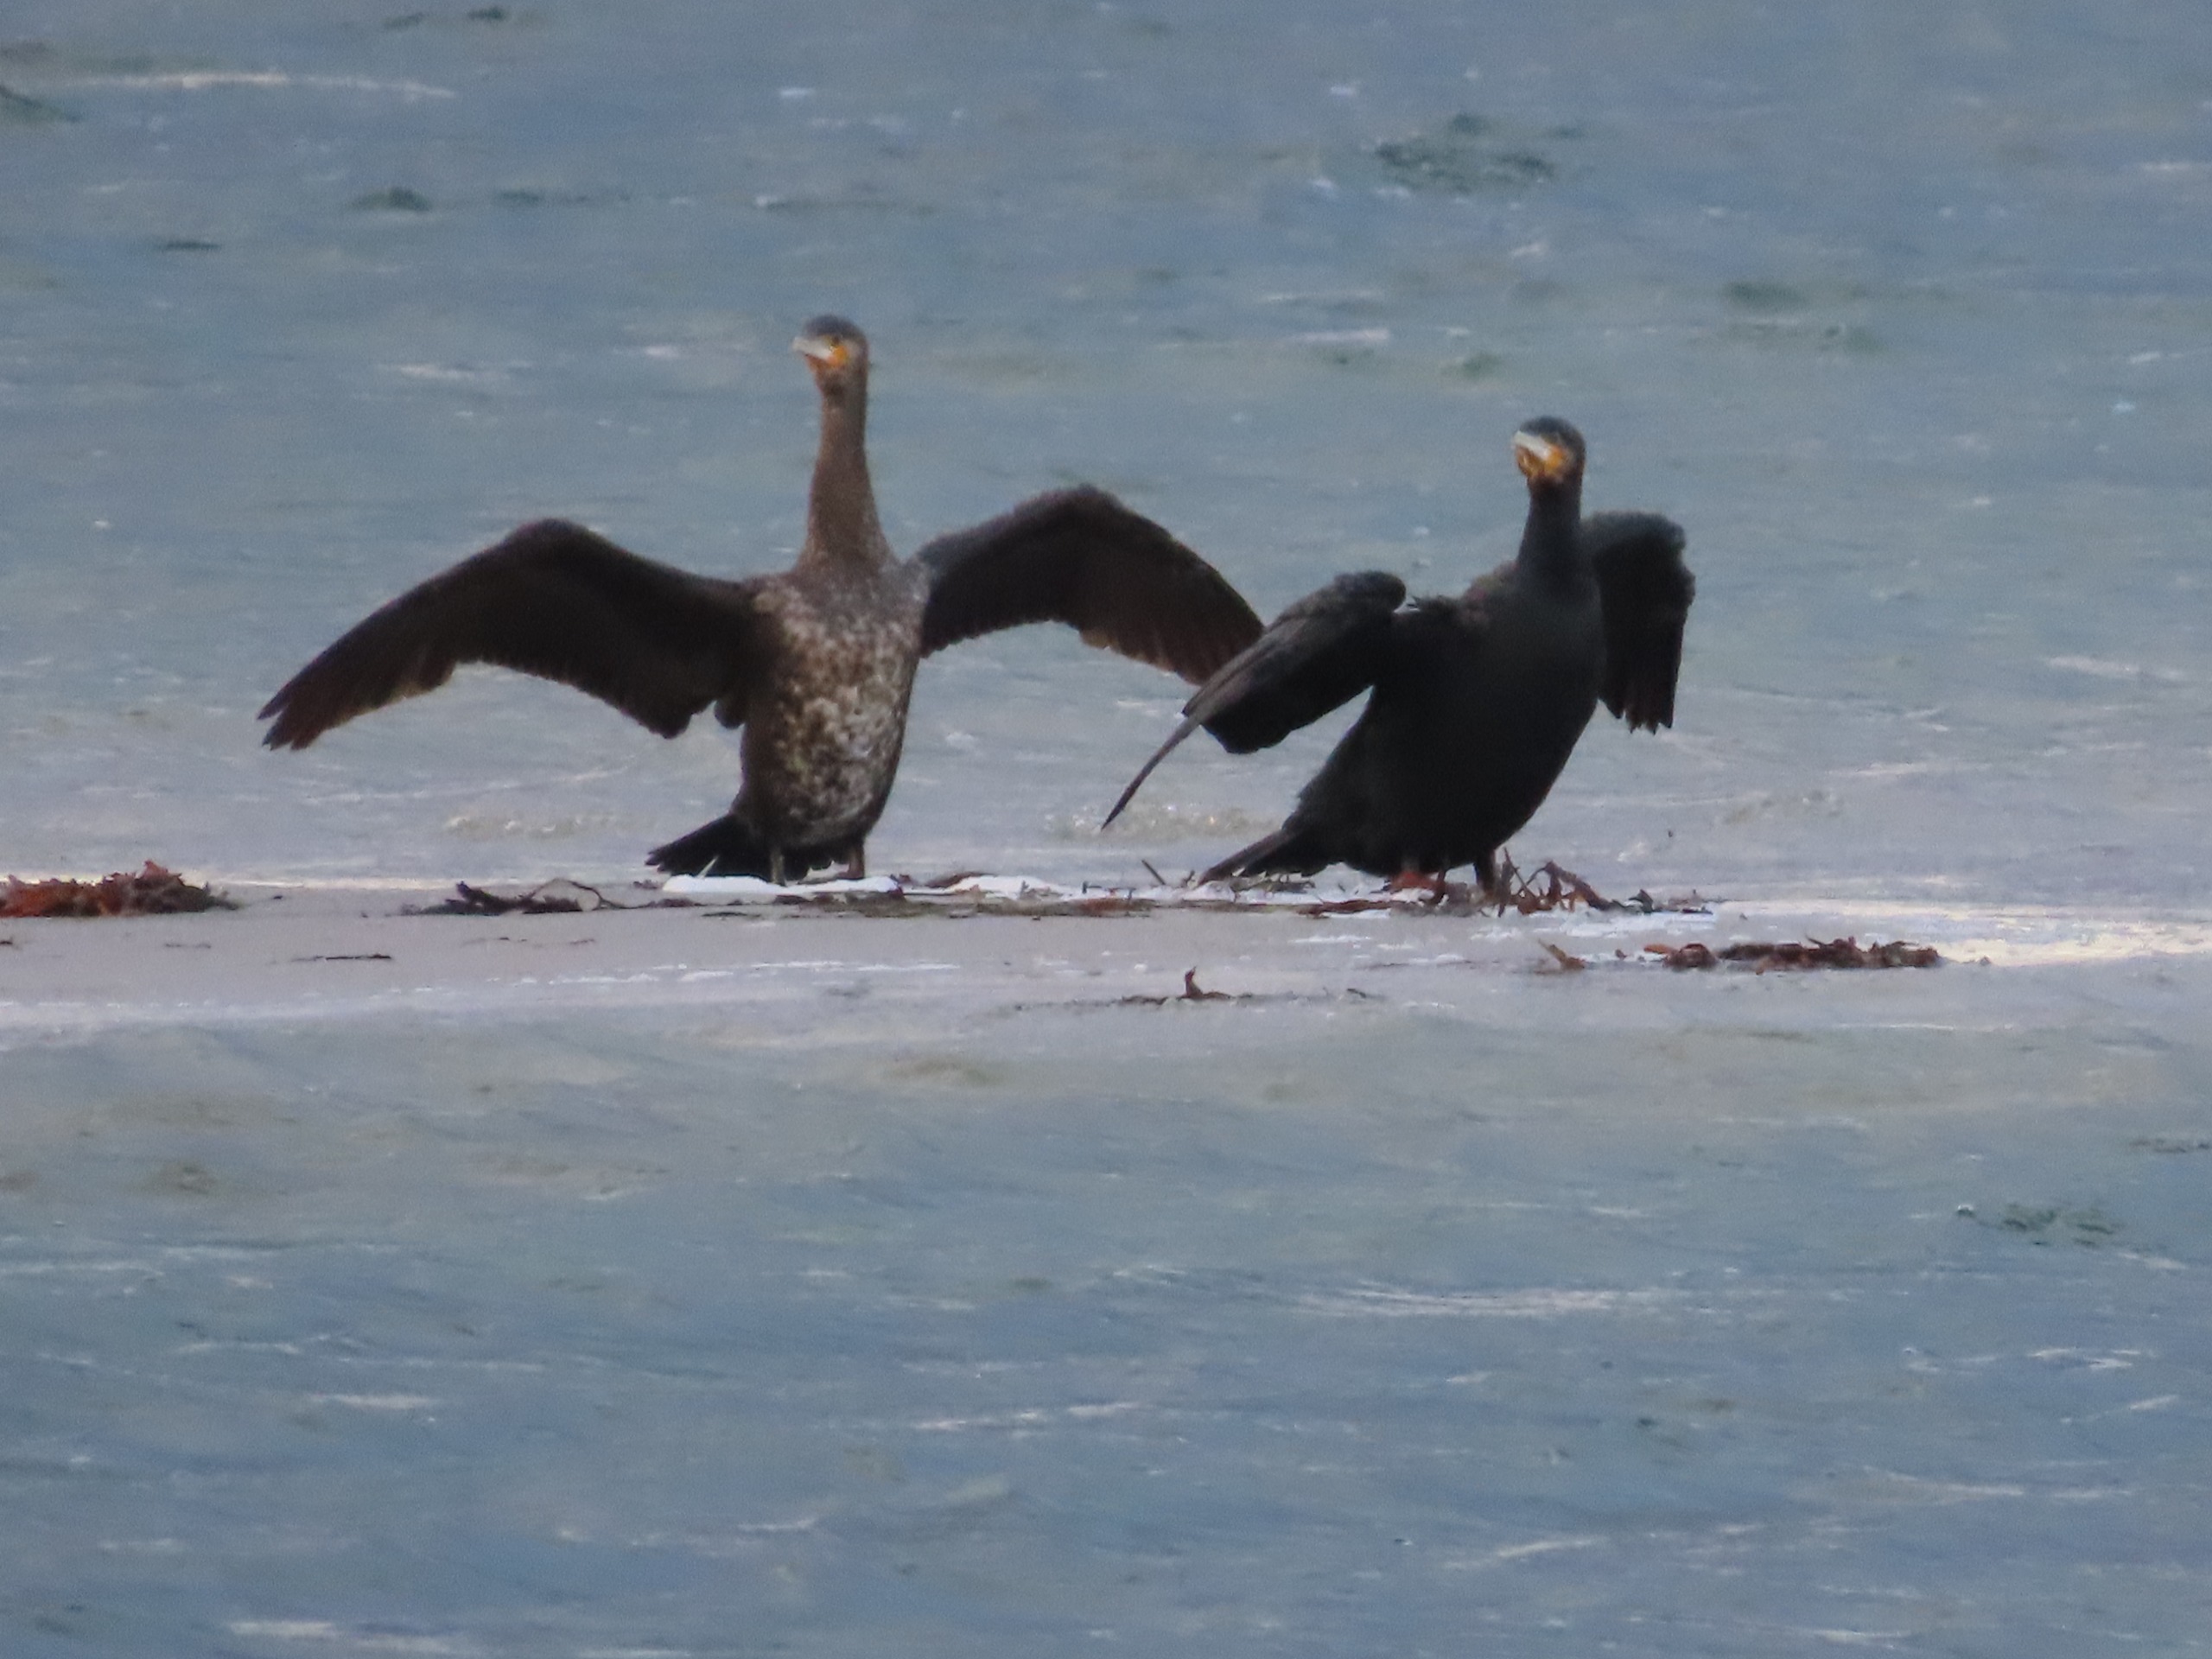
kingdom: Animalia
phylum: Chordata
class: Aves
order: Suliformes
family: Phalacrocoracidae
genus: Phalacrocorax
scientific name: Phalacrocorax carbo
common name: Skarv
